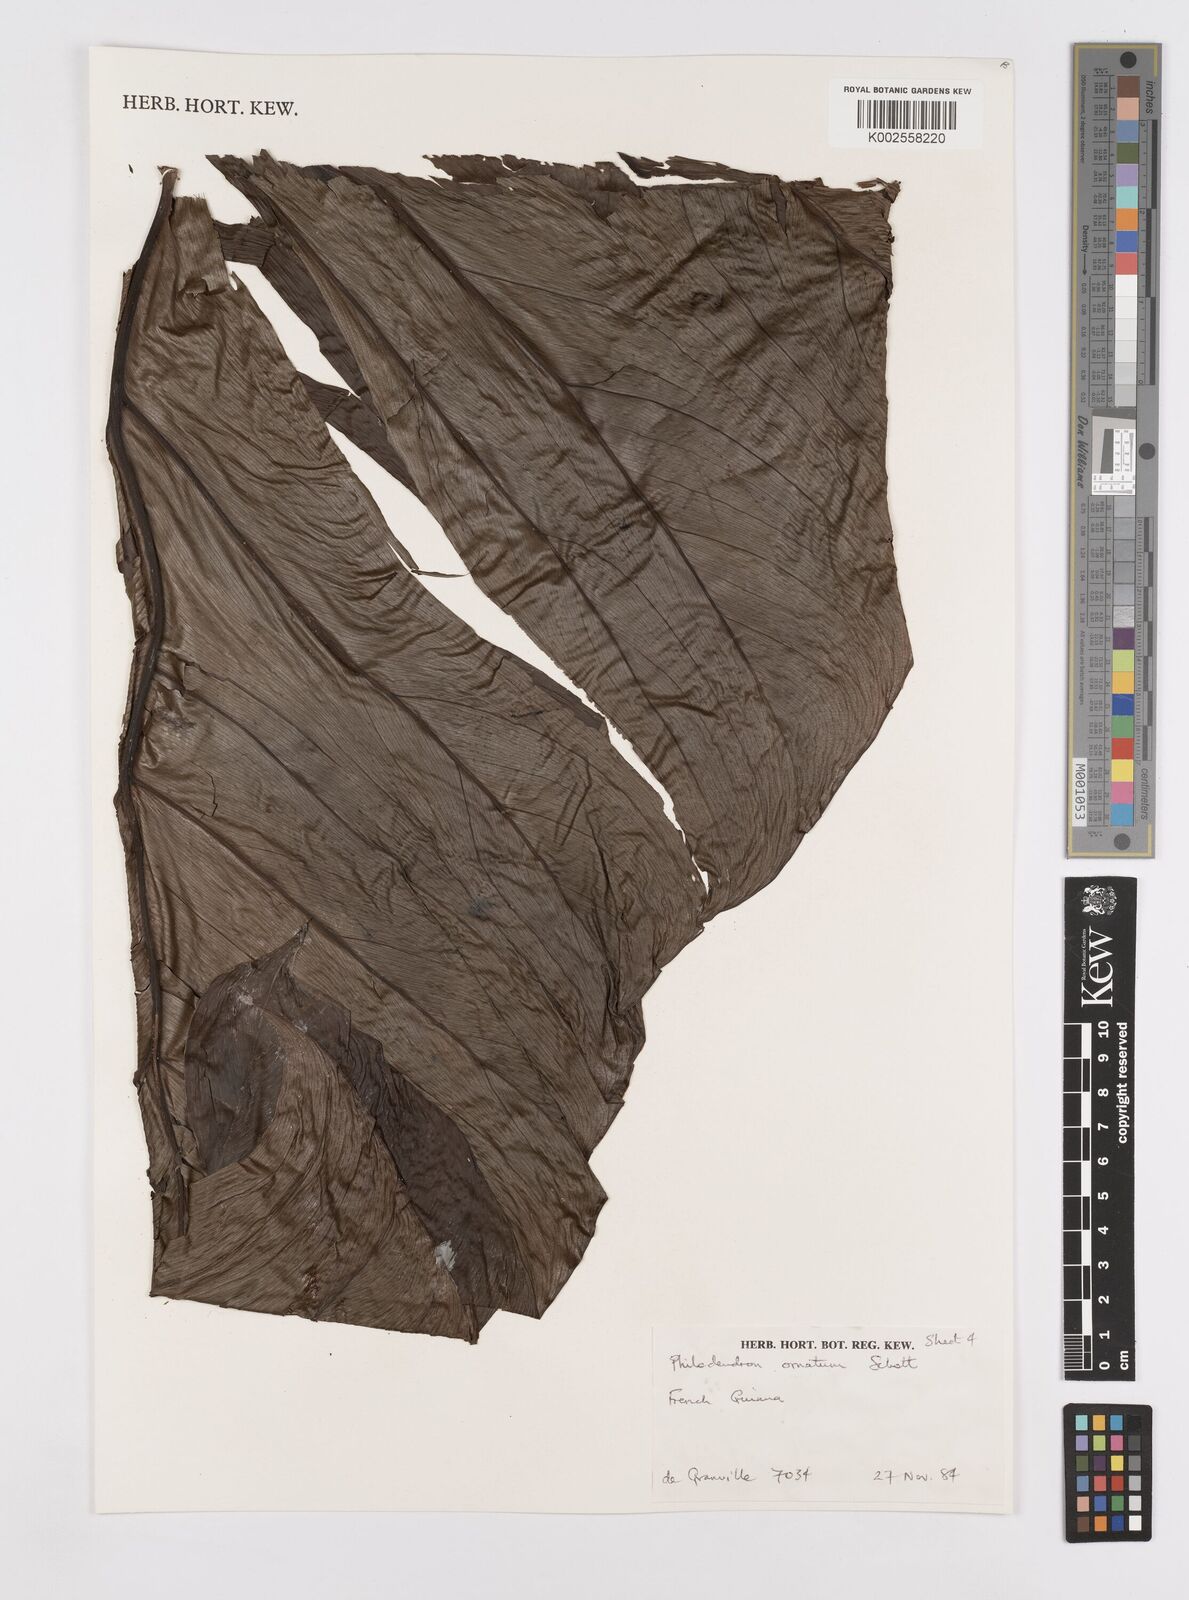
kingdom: Plantae
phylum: Tracheophyta
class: Liliopsida
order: Alismatales
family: Araceae
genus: Philodendron
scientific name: Philodendron ornatum
